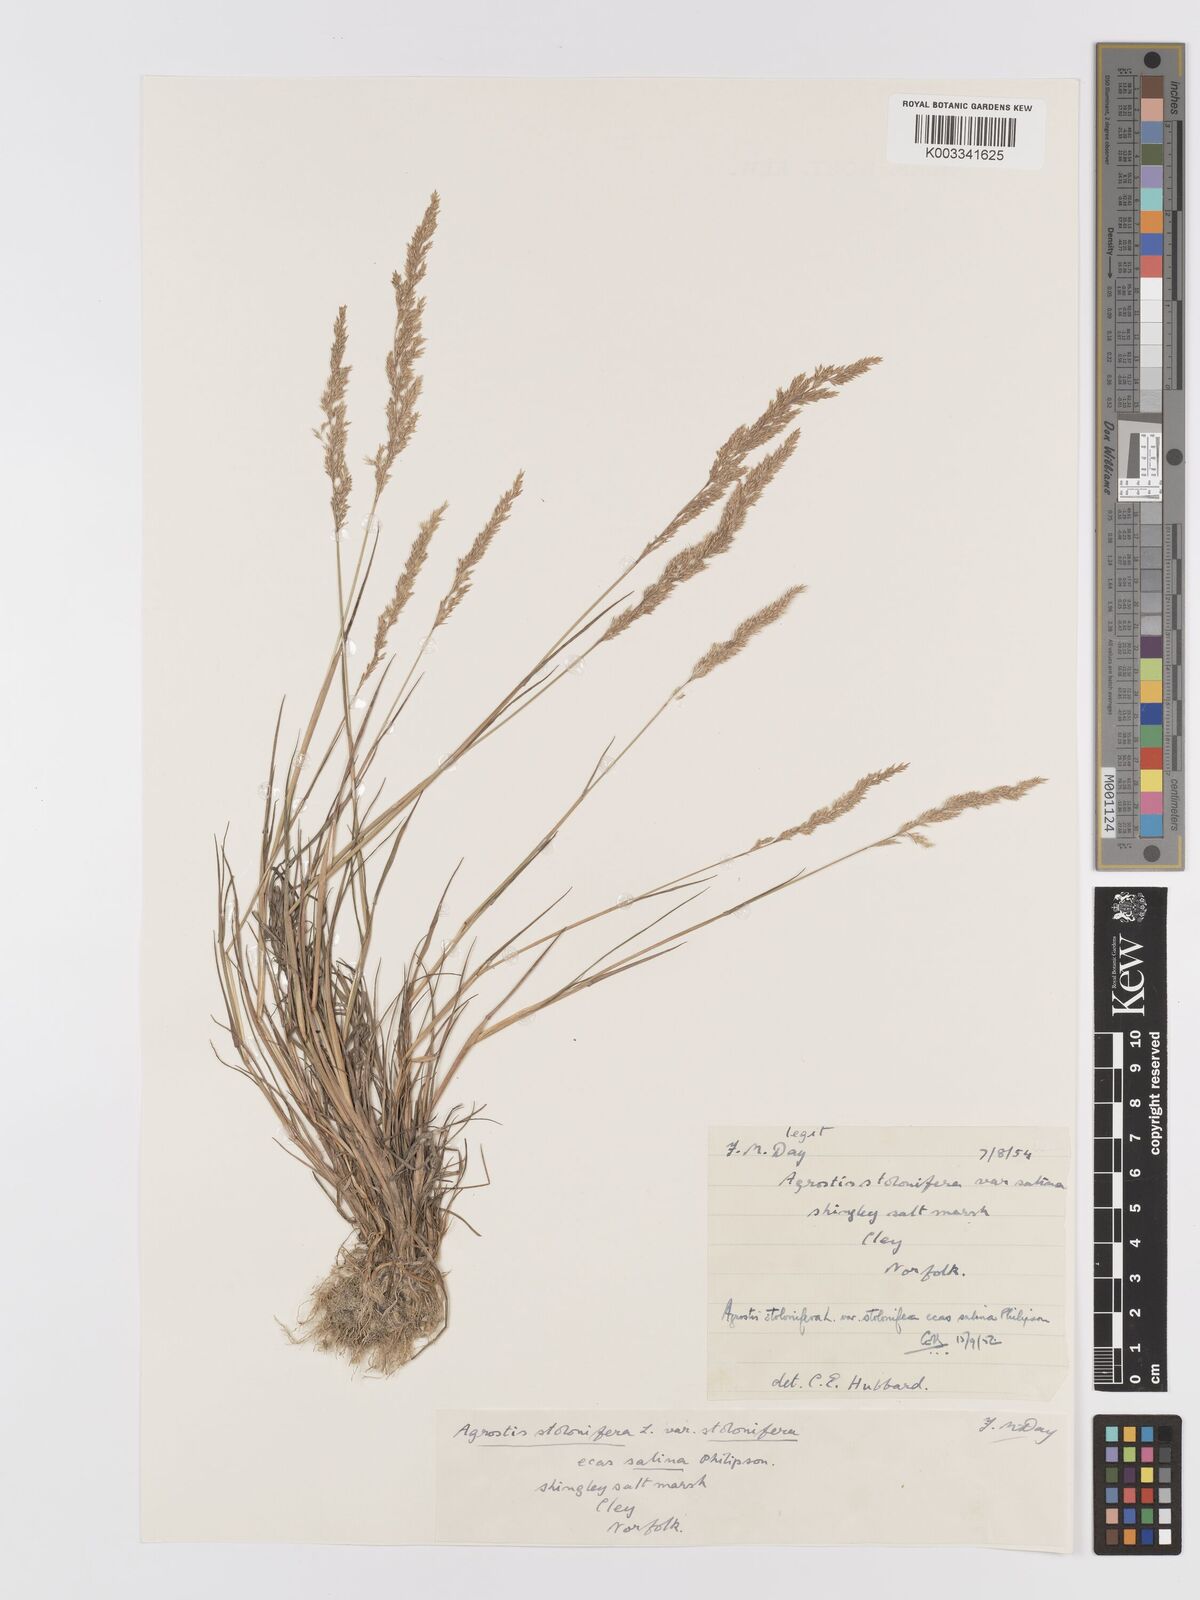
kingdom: Plantae
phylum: Tracheophyta
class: Liliopsida
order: Poales
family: Poaceae
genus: Agrostis
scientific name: Agrostis stolonifera
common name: Creeping bentgrass
